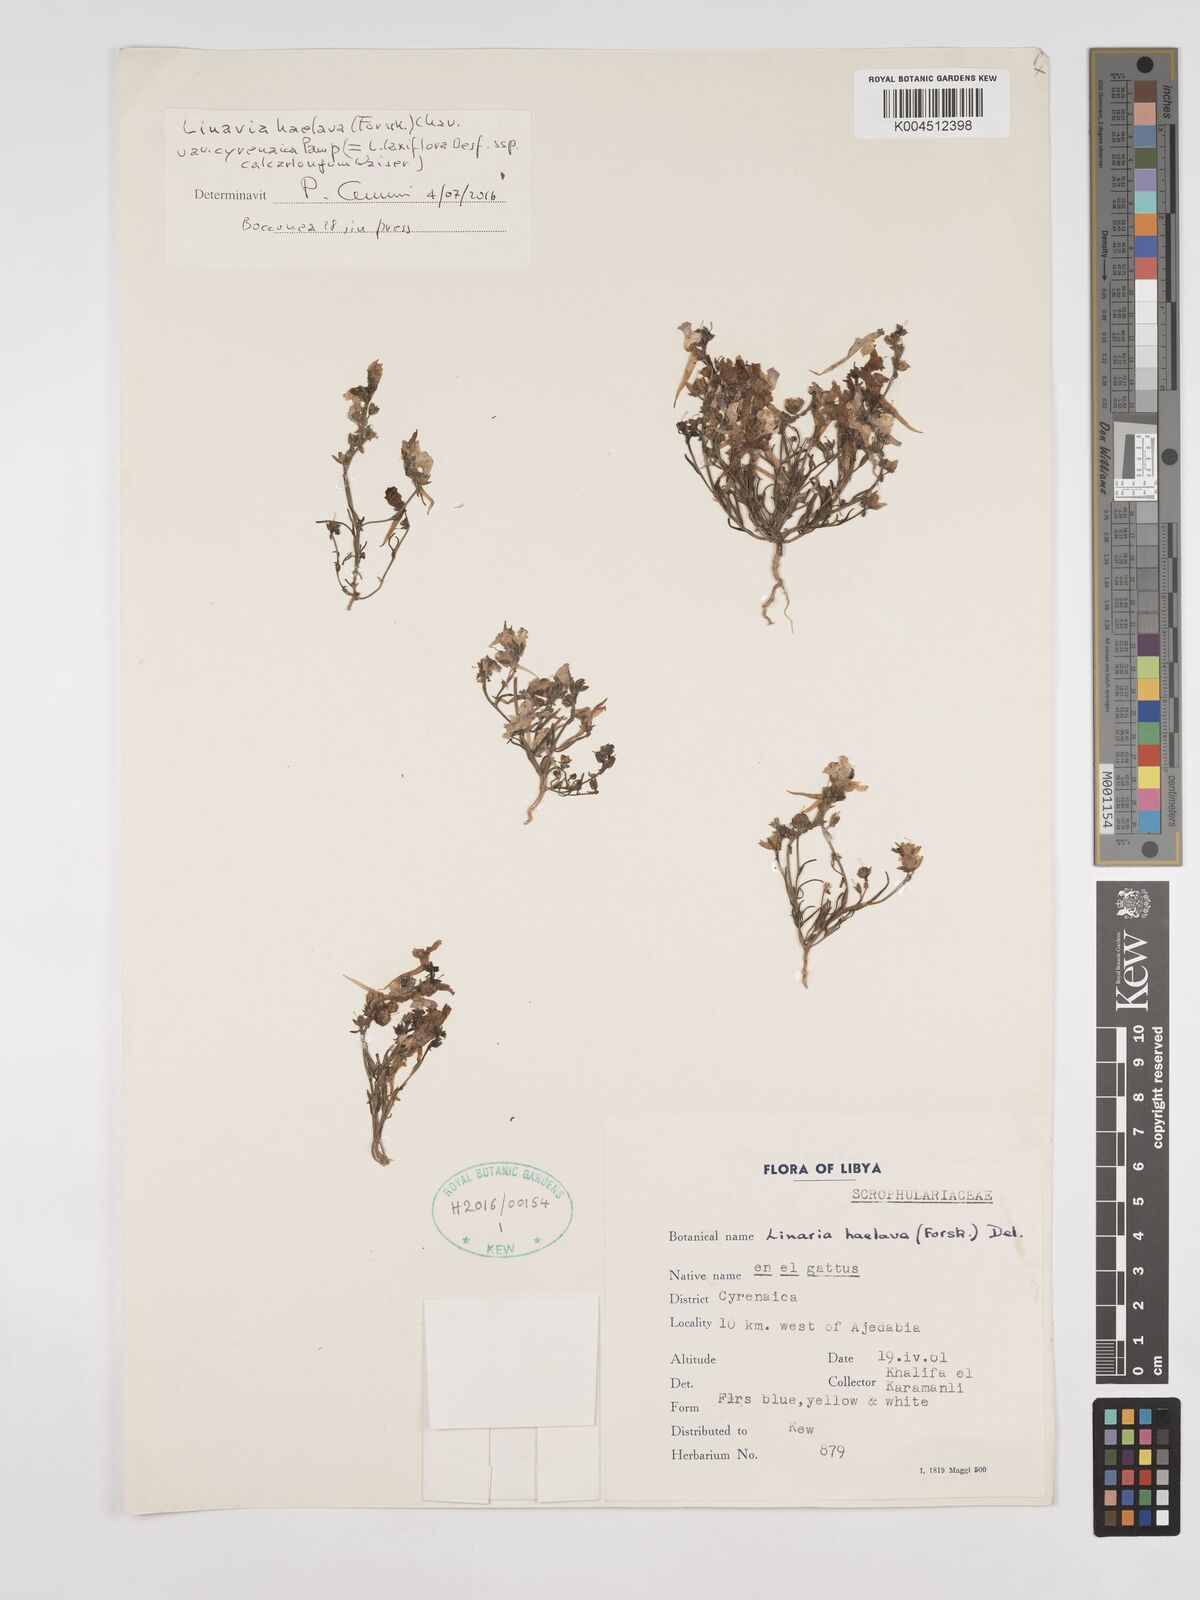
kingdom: Plantae
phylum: Tracheophyta
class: Magnoliopsida
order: Lamiales
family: Plantaginaceae
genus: Linaria
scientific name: Linaria haelava
